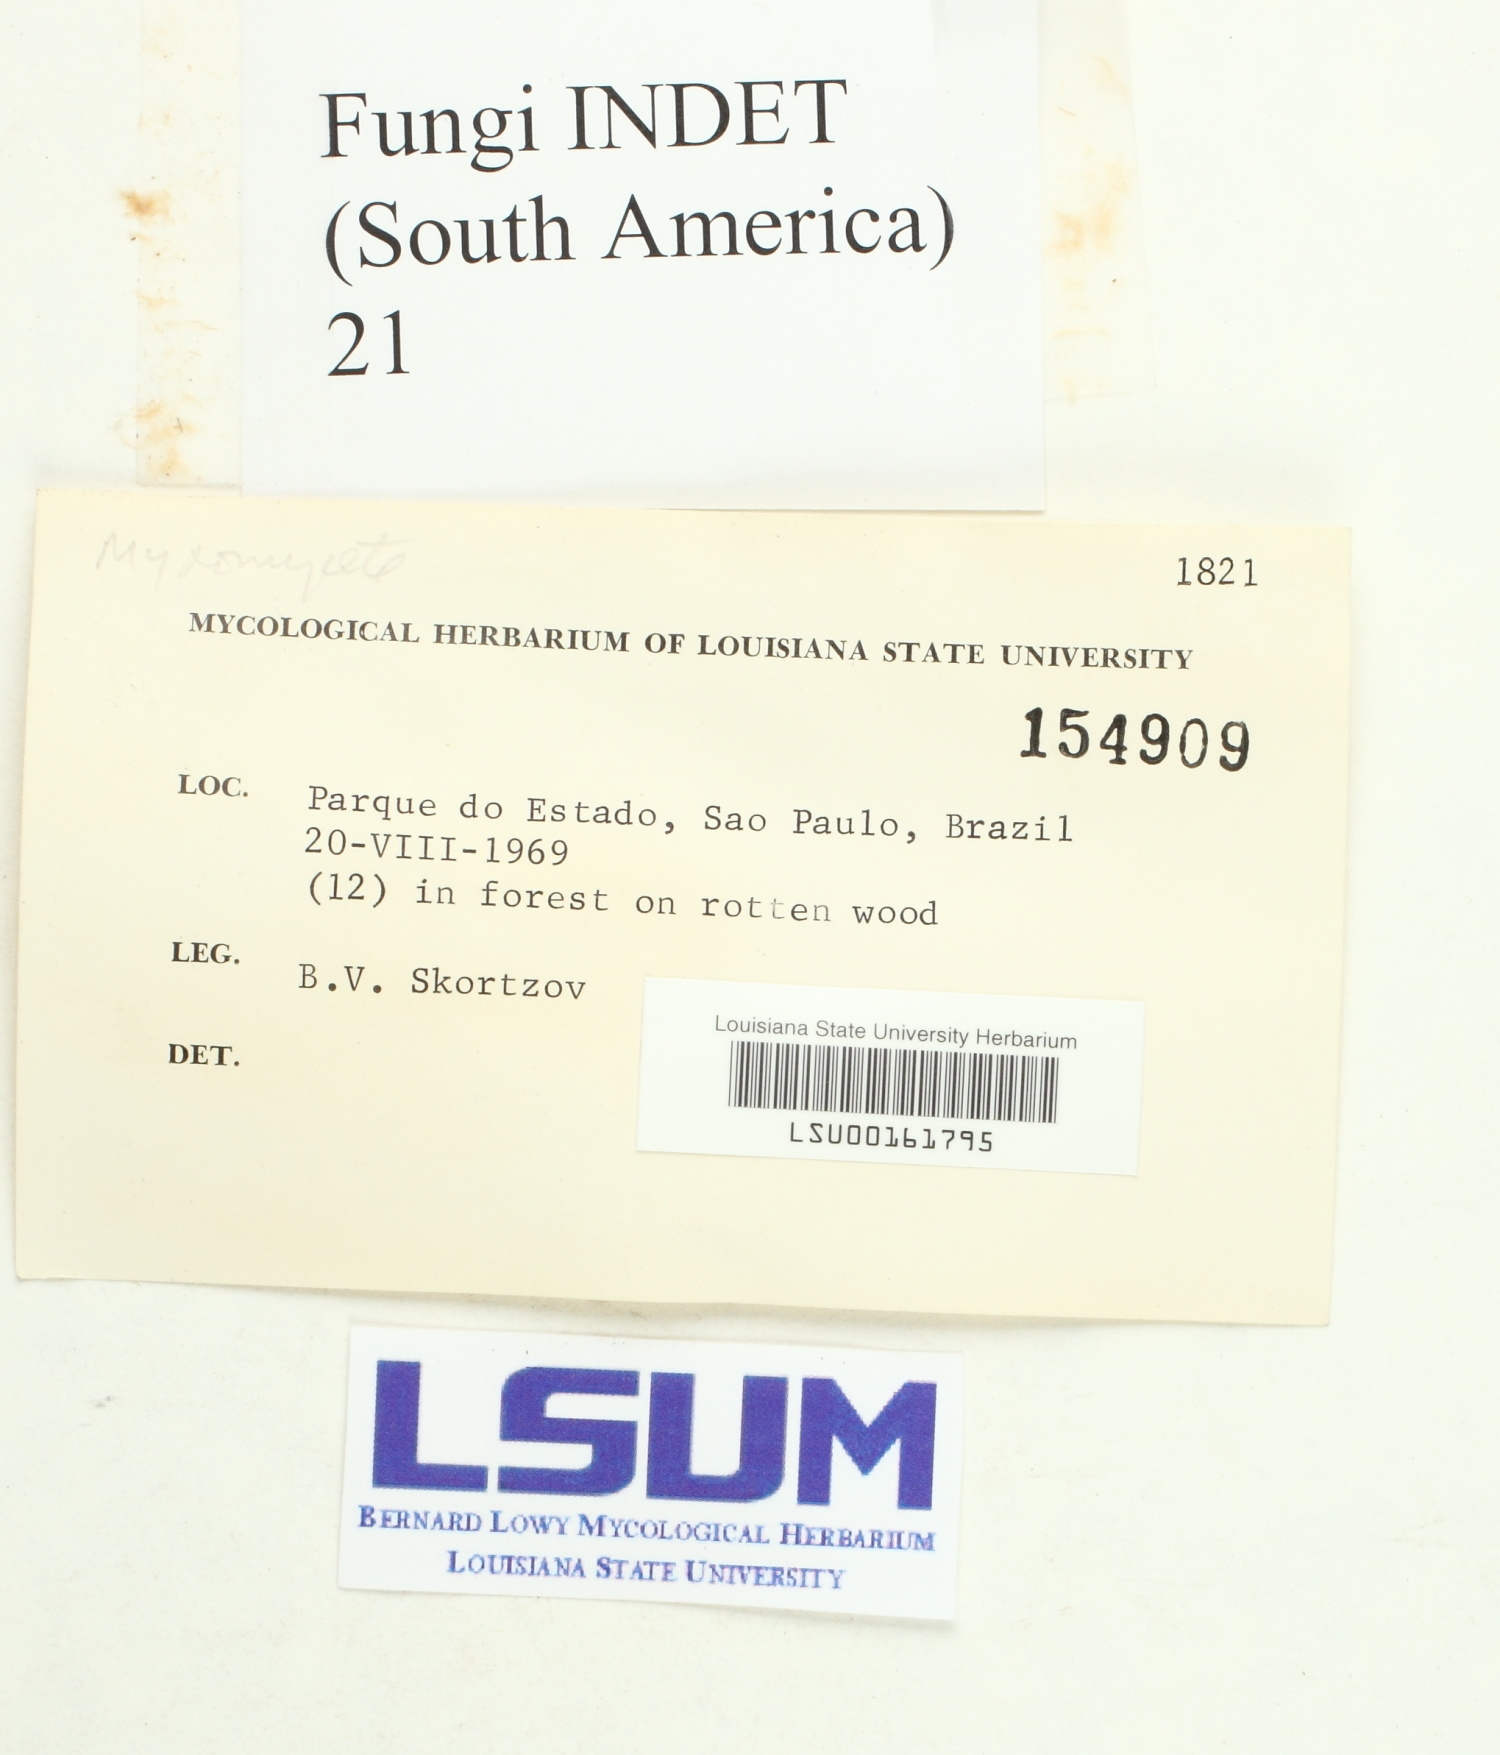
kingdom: Fungi
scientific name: Fungi
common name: Fungi
